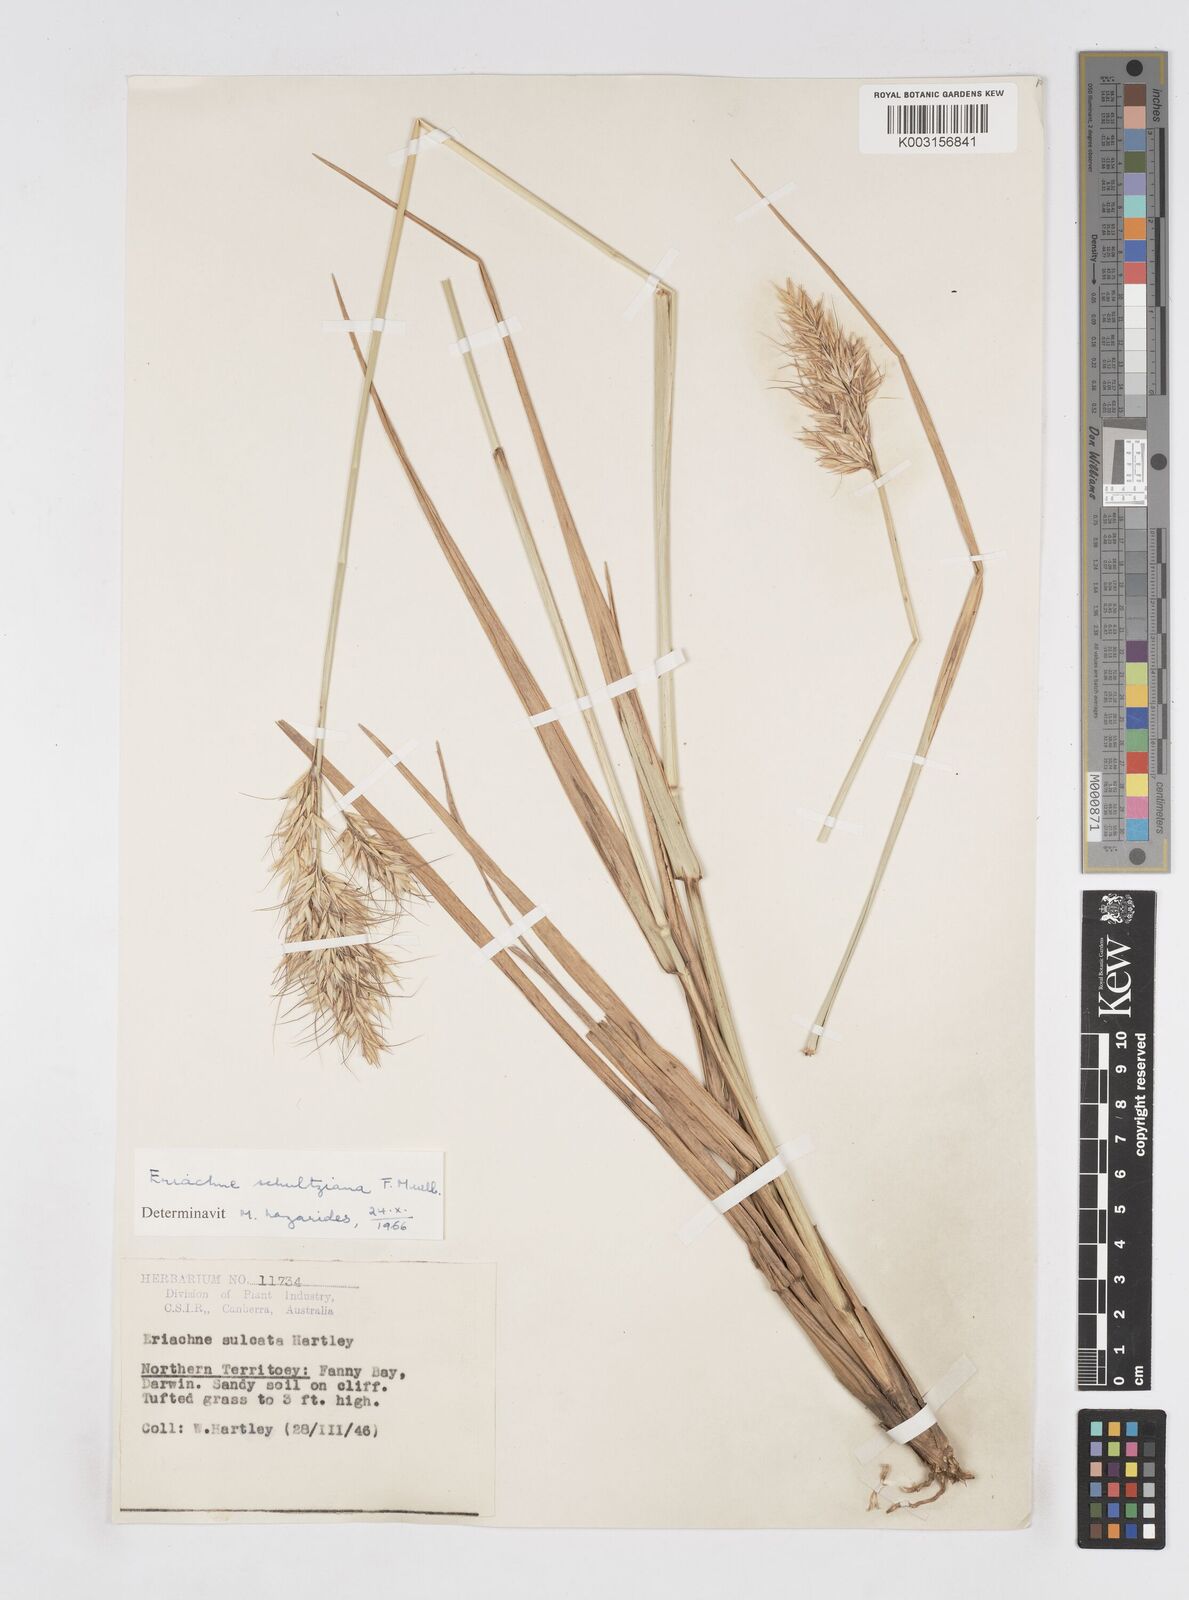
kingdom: Plantae
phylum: Tracheophyta
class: Liliopsida
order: Poales
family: Poaceae
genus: Eriachne
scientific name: Eriachne schultziana
